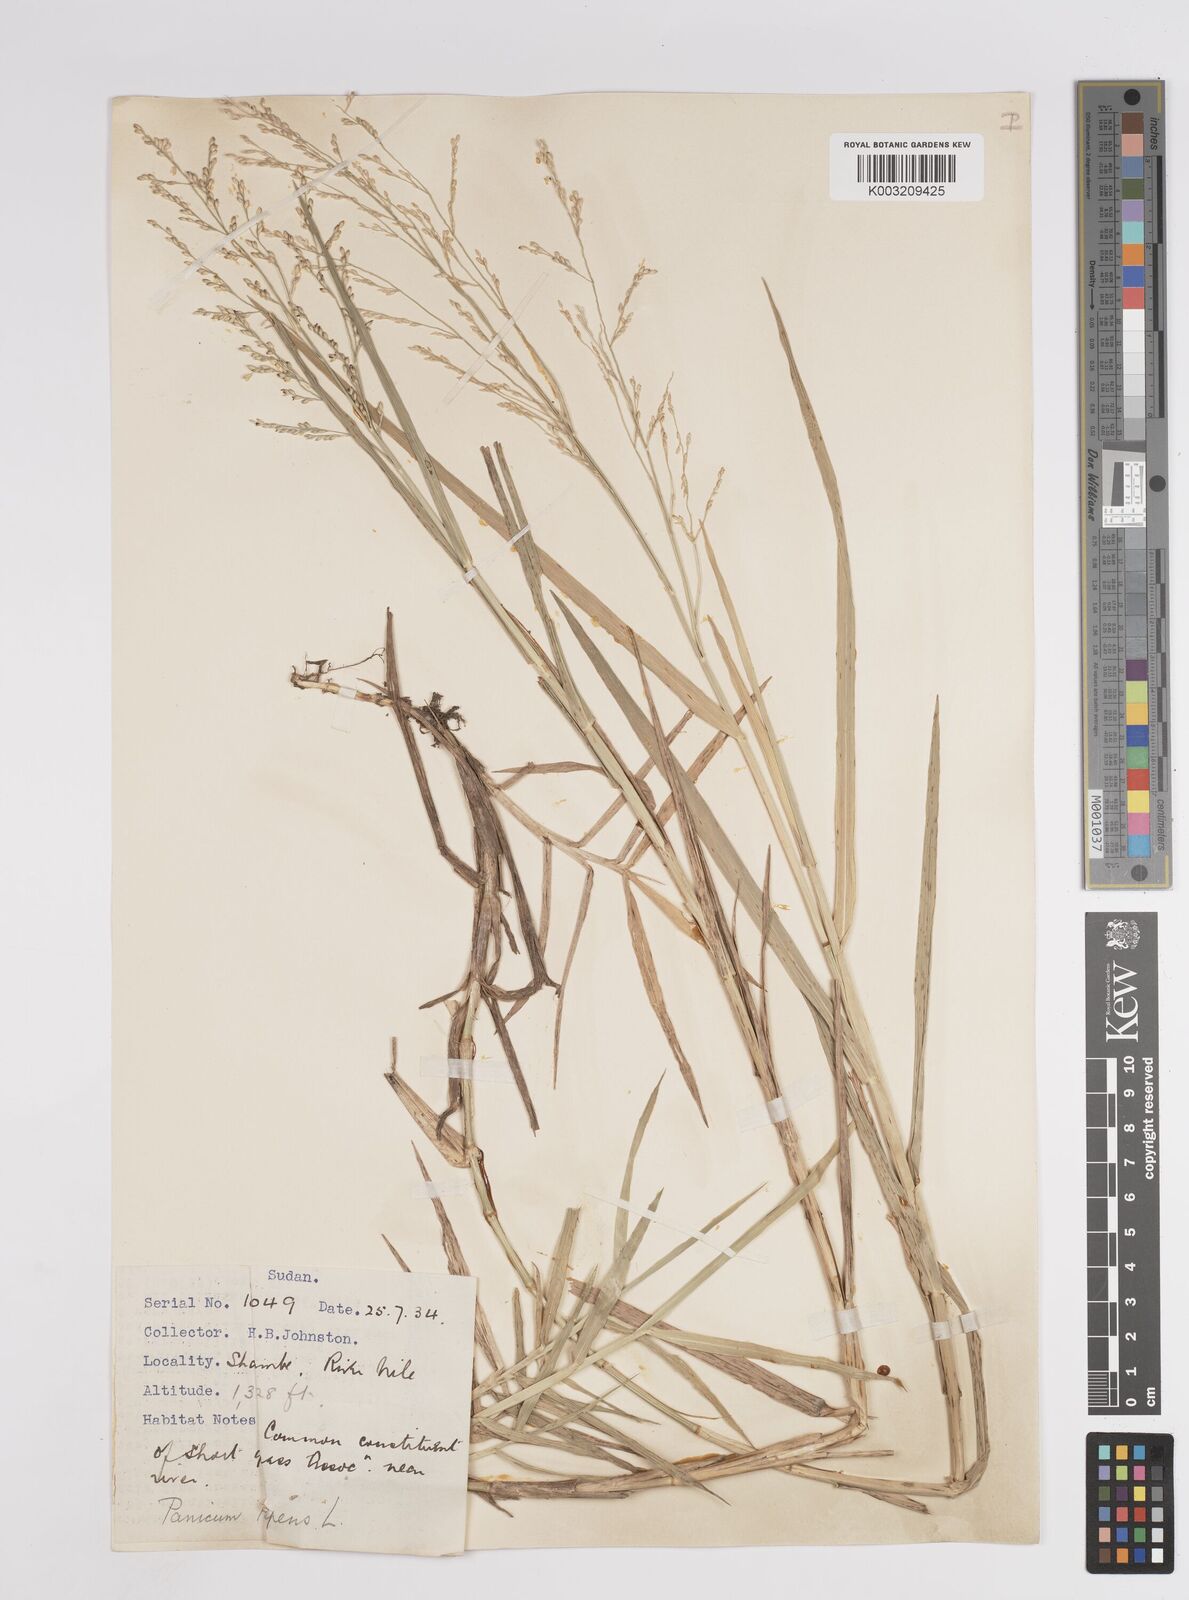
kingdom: Plantae
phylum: Tracheophyta
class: Liliopsida
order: Poales
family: Poaceae
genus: Panicum
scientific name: Panicum repens
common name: Torpedo grass
